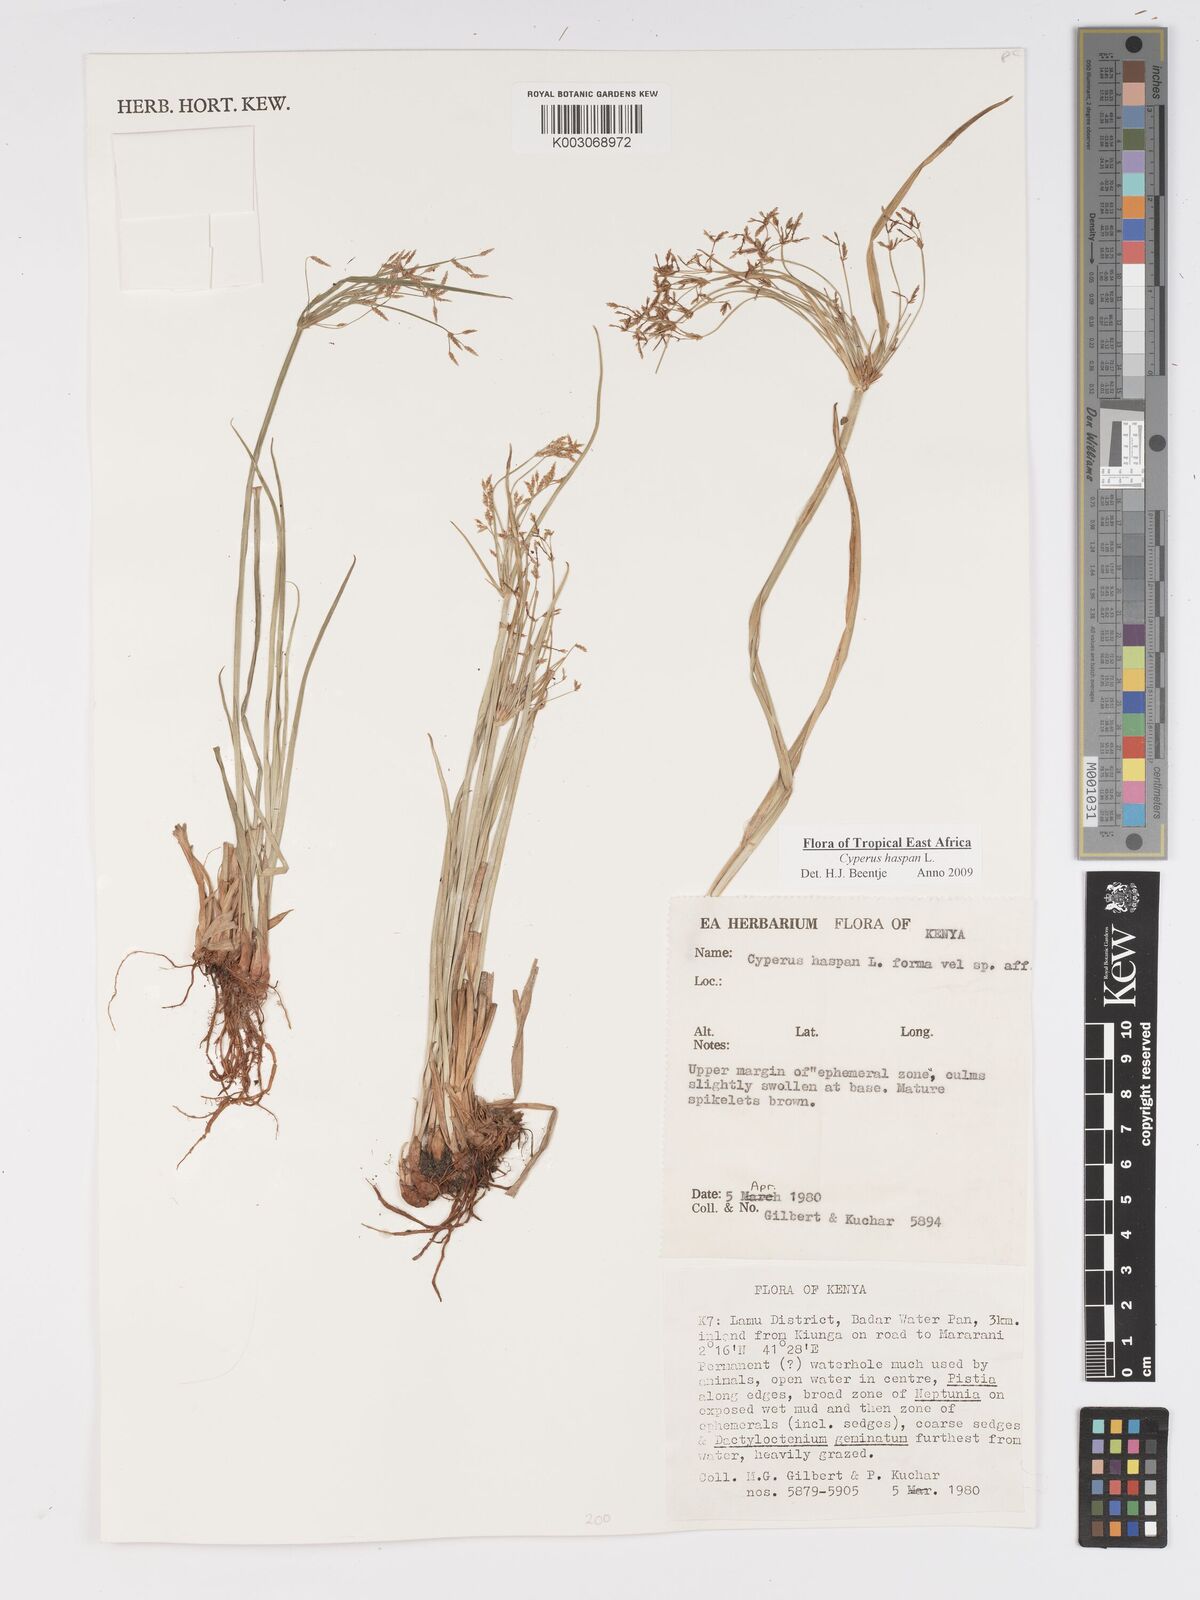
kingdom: Plantae
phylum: Tracheophyta
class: Liliopsida
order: Poales
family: Cyperaceae
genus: Cyperus
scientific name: Cyperus haspan
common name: Haspan flatsedge
